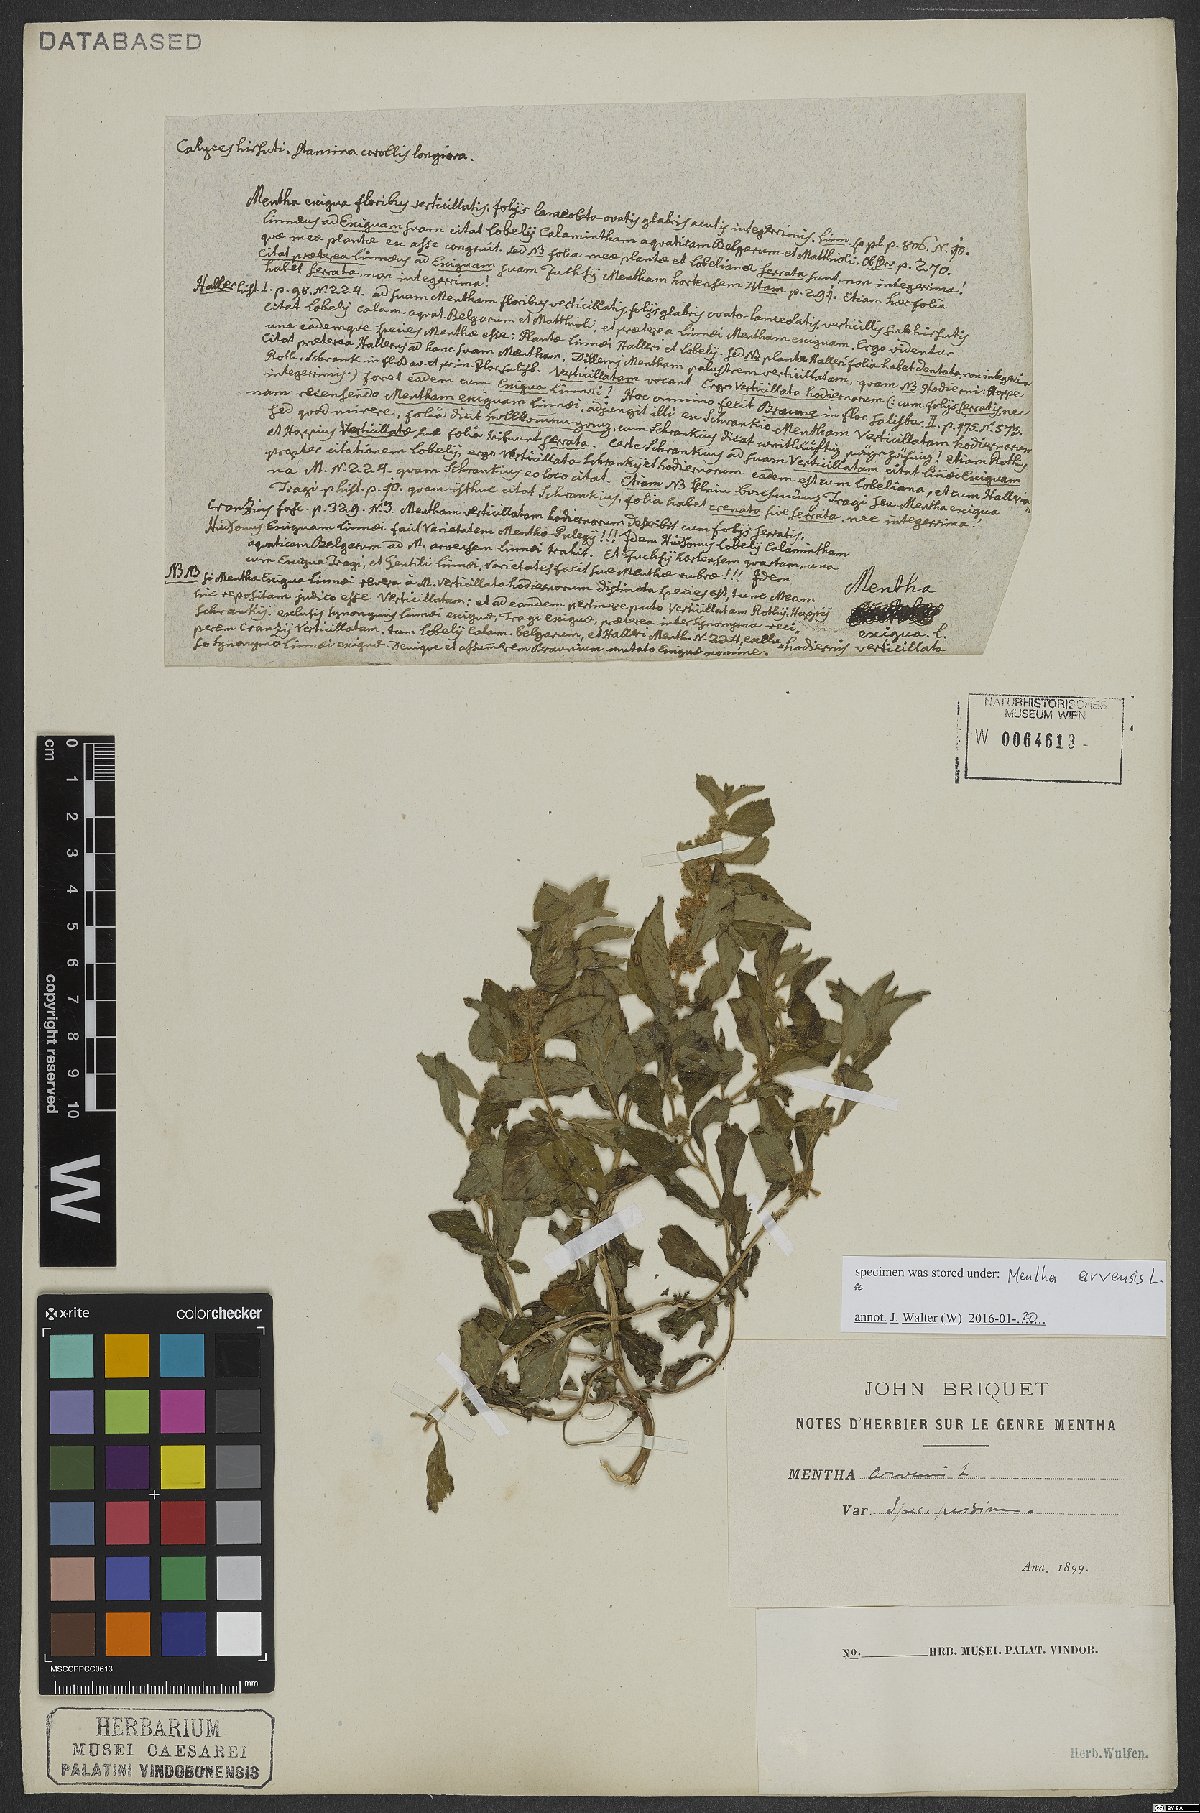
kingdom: Plantae
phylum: Tracheophyta
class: Magnoliopsida
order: Lamiales
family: Lamiaceae
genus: Mentha
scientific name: Mentha arvensis
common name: Corn mint
